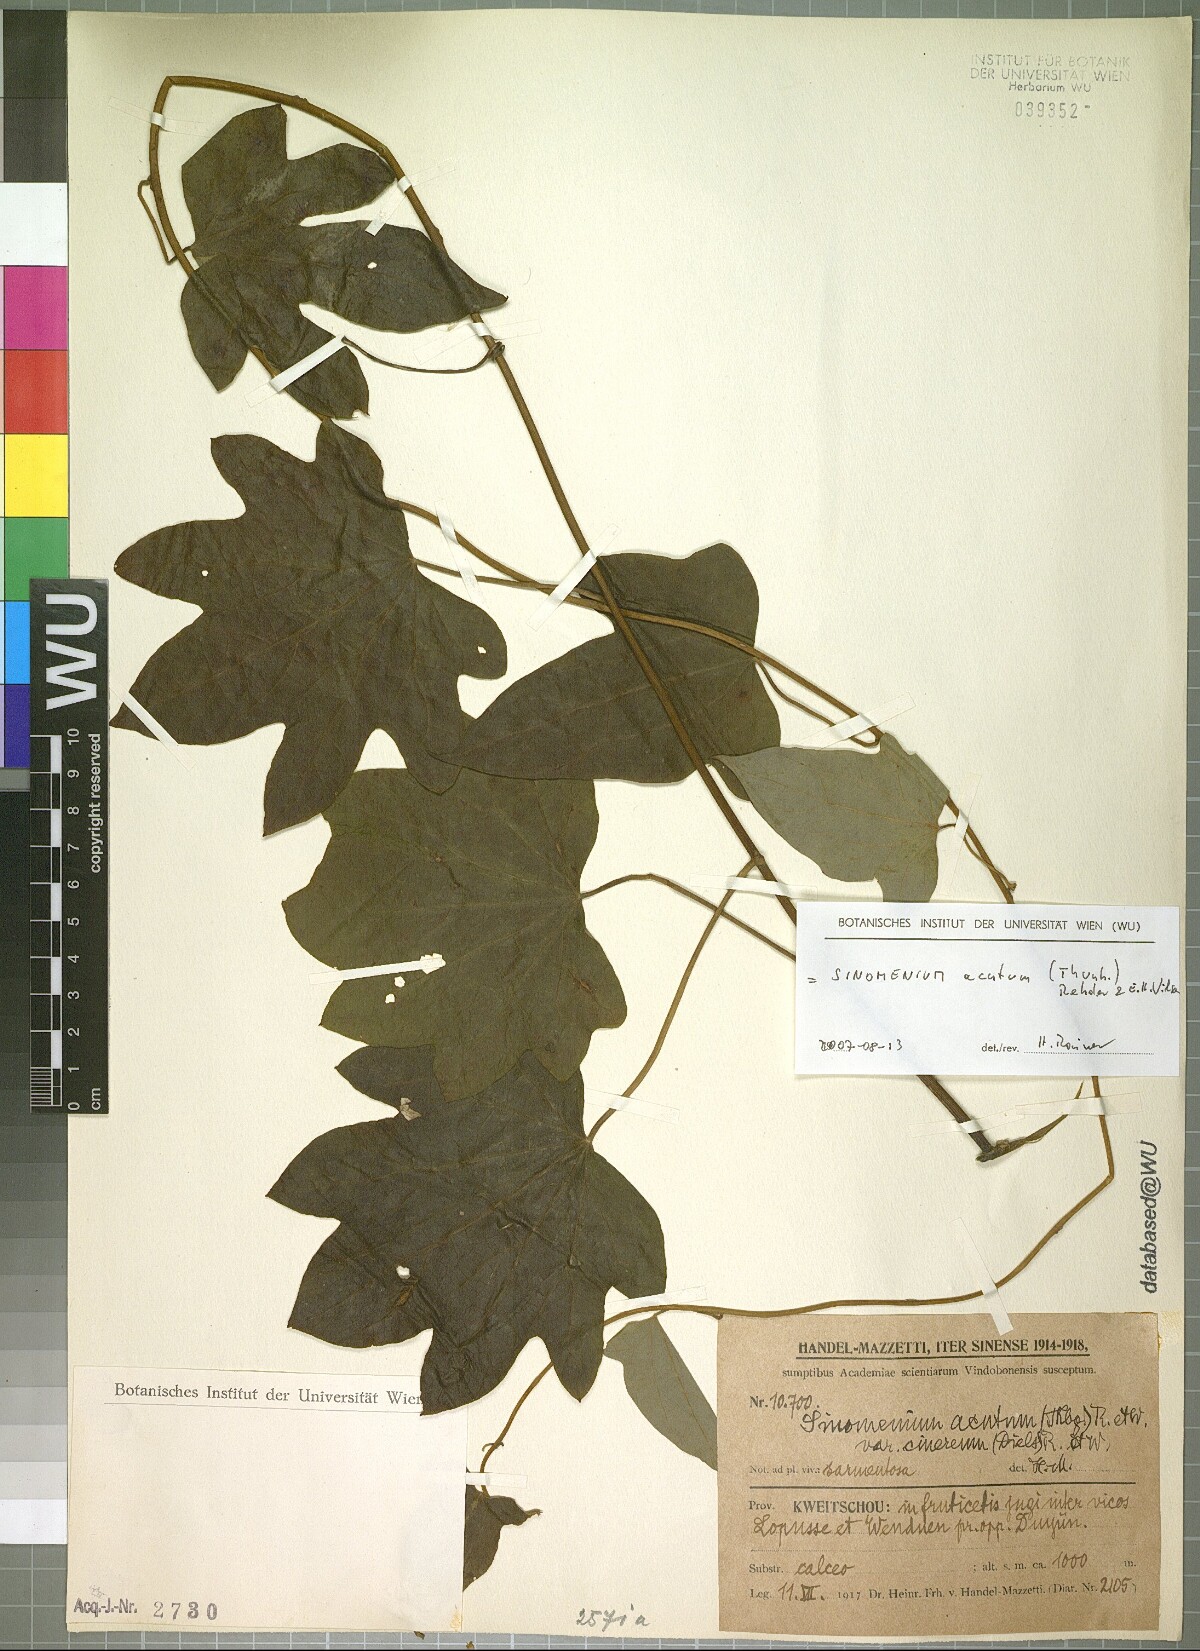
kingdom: Plantae
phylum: Tracheophyta
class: Magnoliopsida
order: Ranunculales
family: Menispermaceae
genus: Sinomenium
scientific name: Sinomenium acutum
